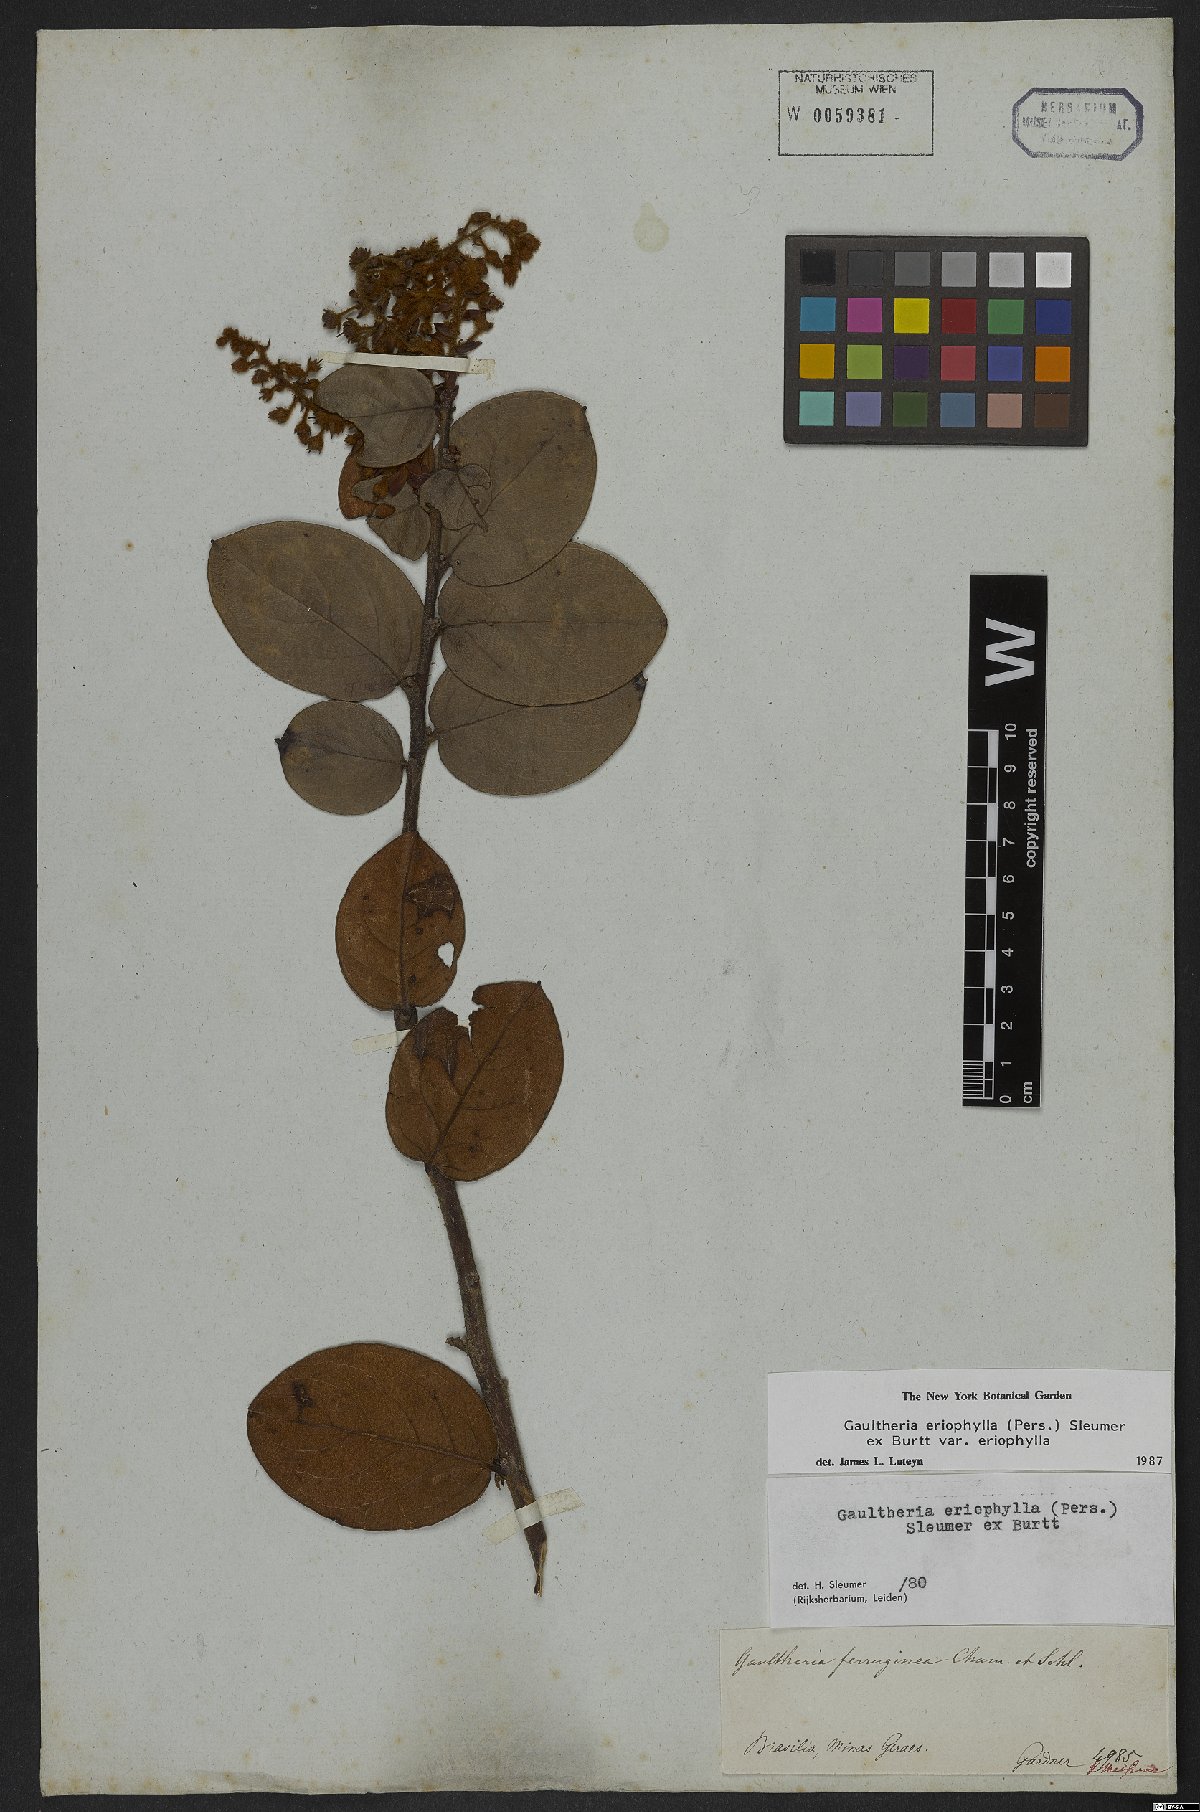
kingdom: Plantae
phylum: Tracheophyta
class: Magnoliopsida
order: Ericales
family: Ericaceae
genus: Gaultheria
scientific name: Gaultheria eriophylla
